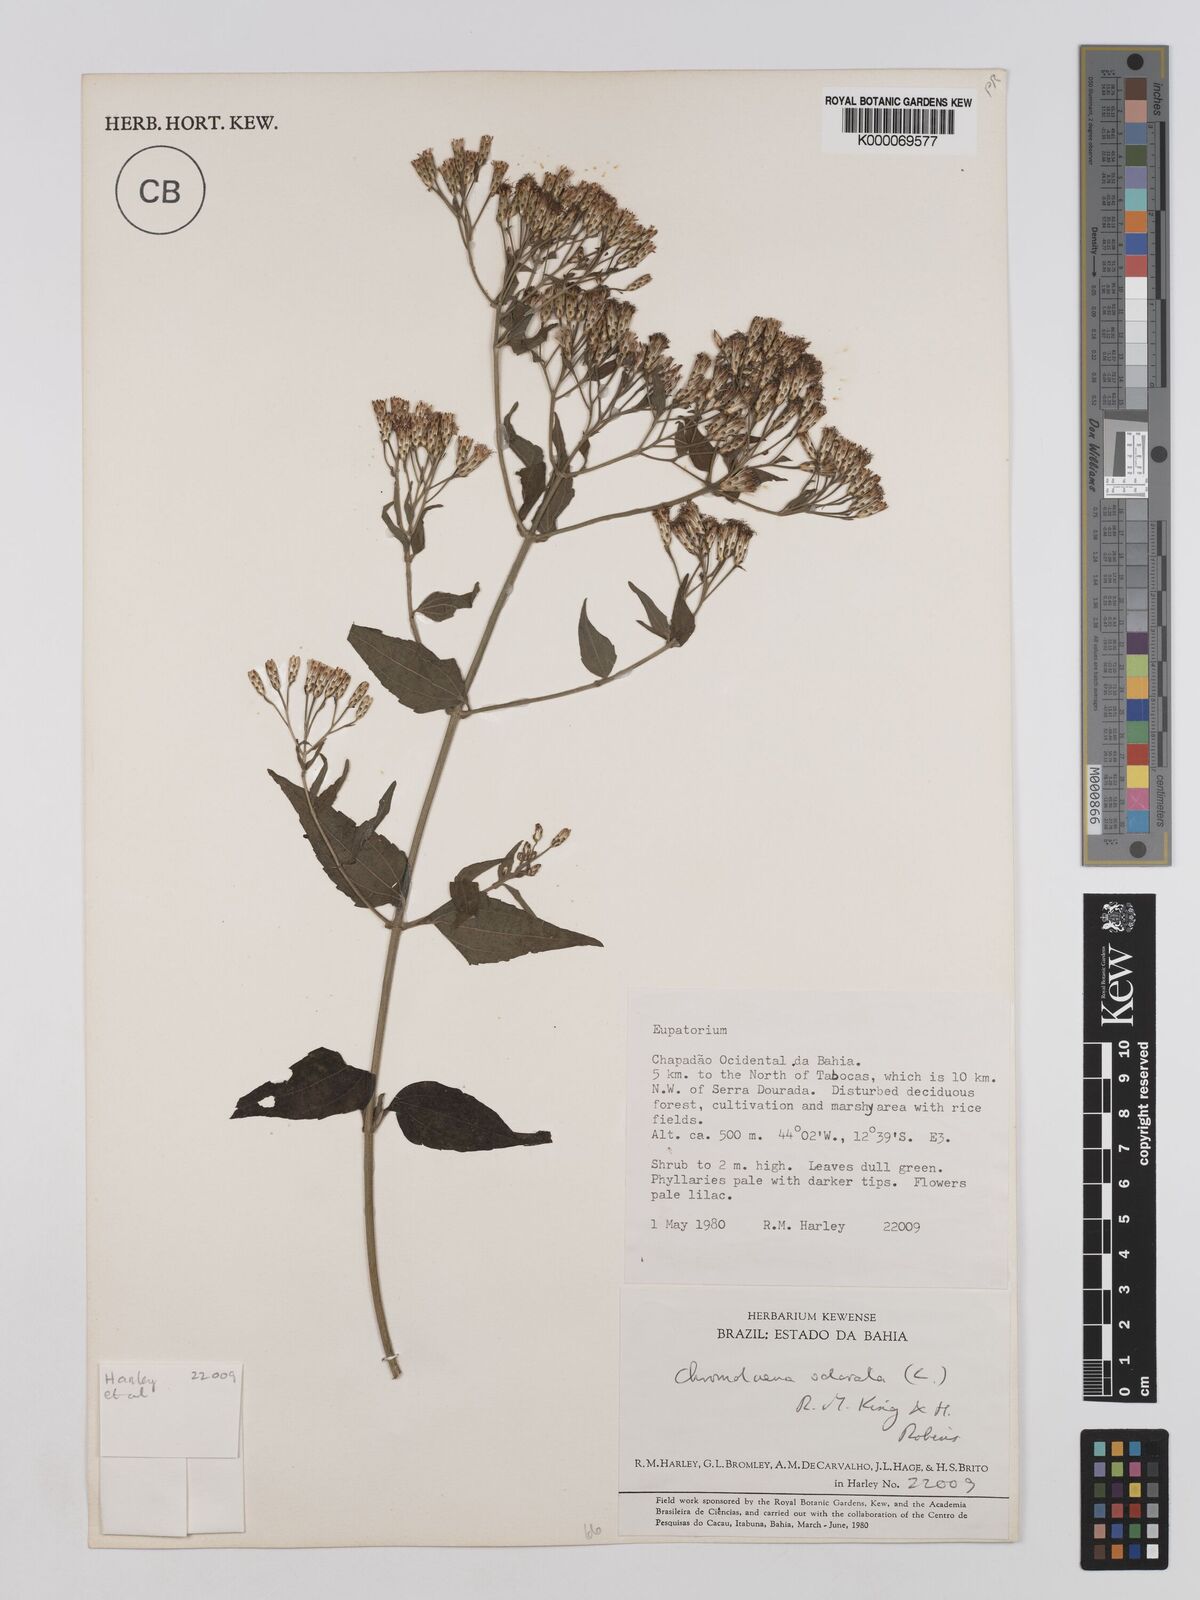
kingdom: Plantae
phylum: Tracheophyta
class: Magnoliopsida
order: Asterales
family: Asteraceae
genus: Chromolaena
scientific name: Chromolaena odorata
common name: Siamweed
